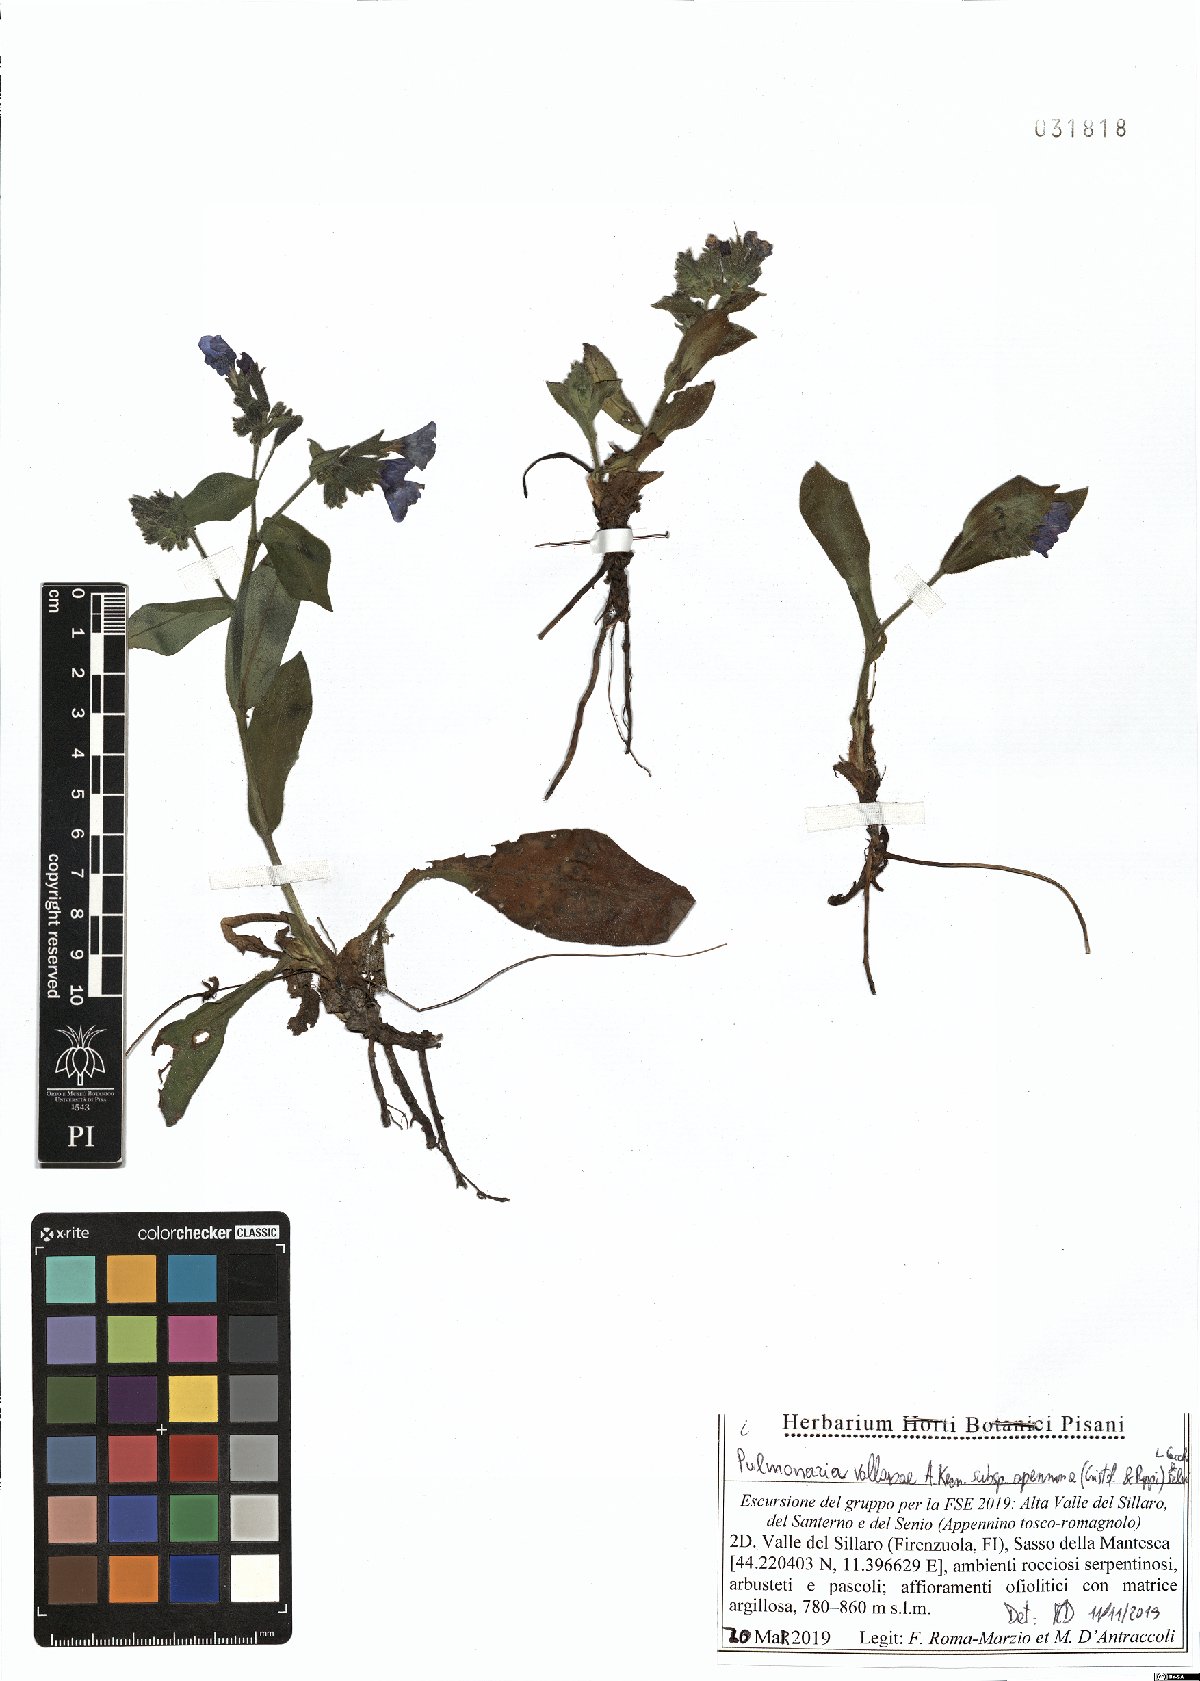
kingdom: Plantae
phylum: Tracheophyta
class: Magnoliopsida
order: Boraginales
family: Boraginaceae
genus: Pulmonaria
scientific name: Pulmonaria hirta
